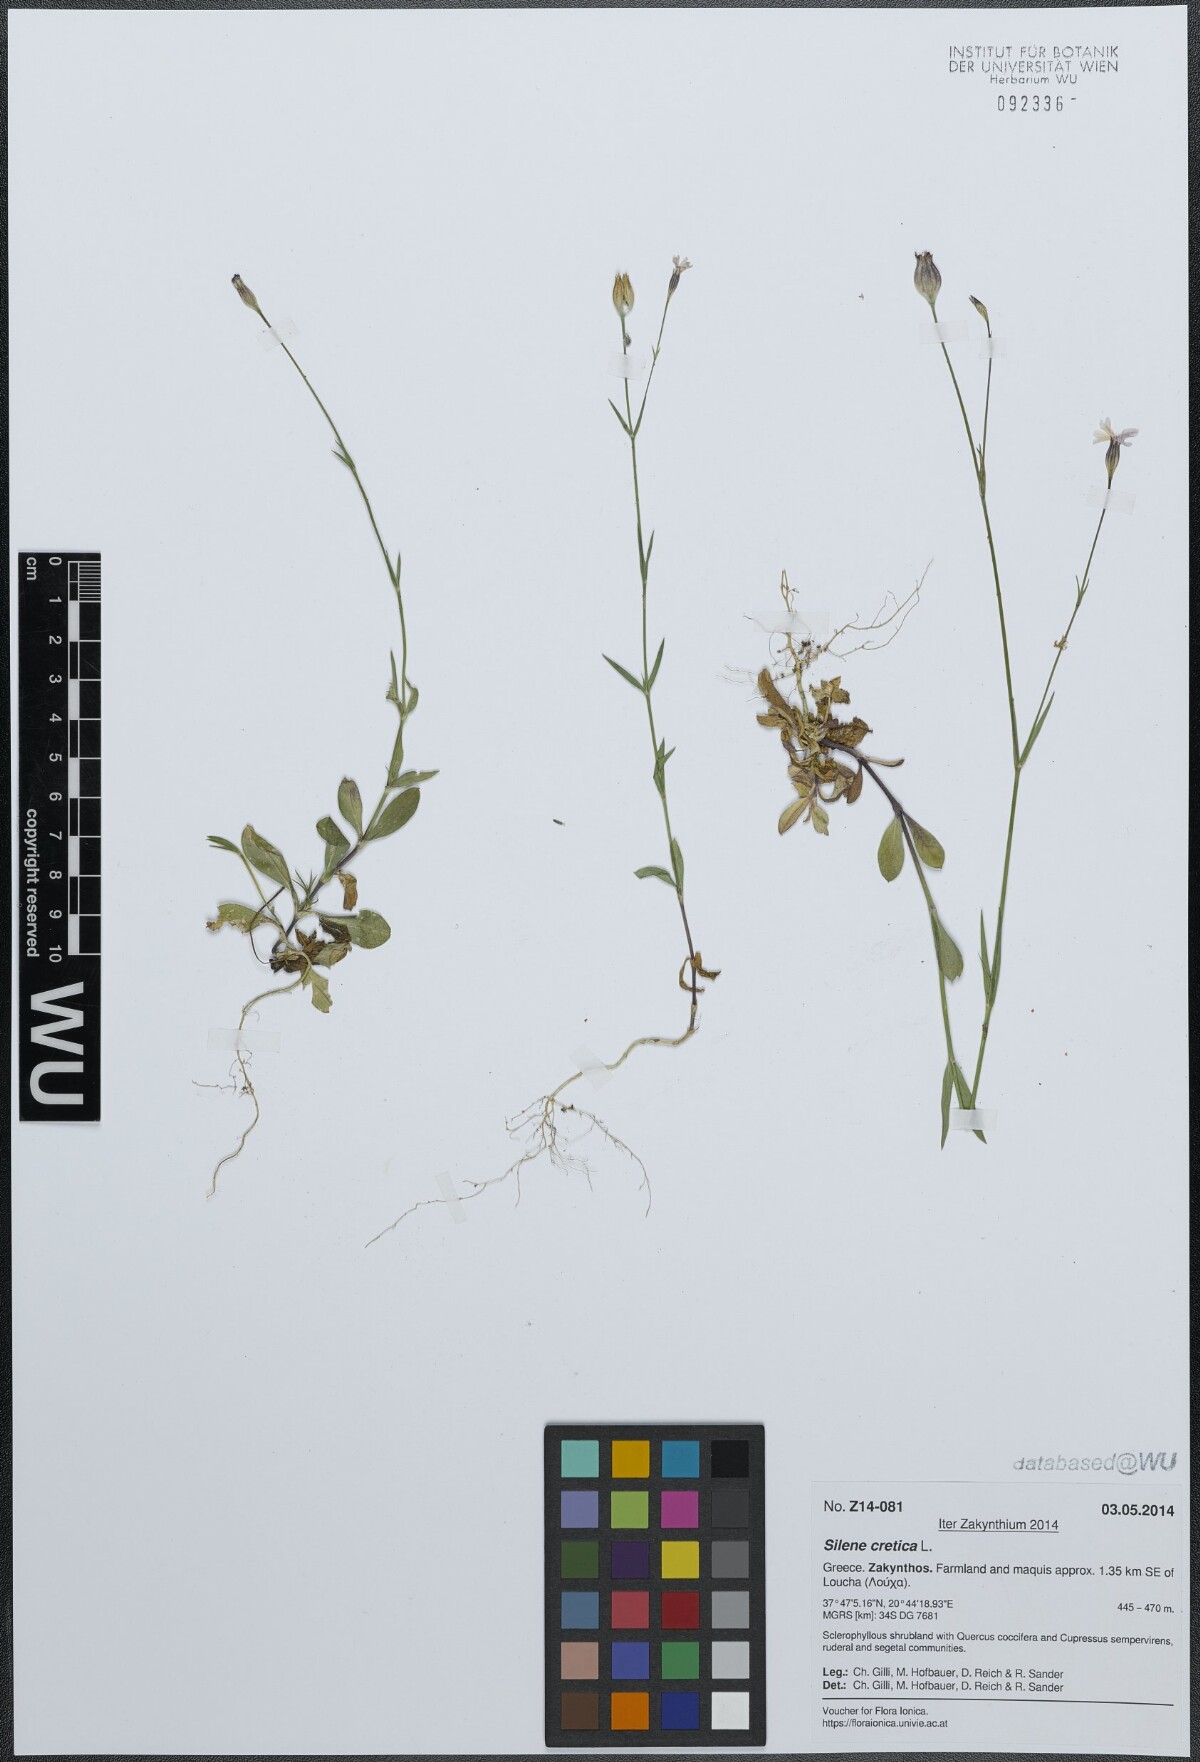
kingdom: Plantae
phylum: Tracheophyta
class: Magnoliopsida
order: Caryophyllales
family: Caryophyllaceae
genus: Silene
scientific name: Silene cretica
